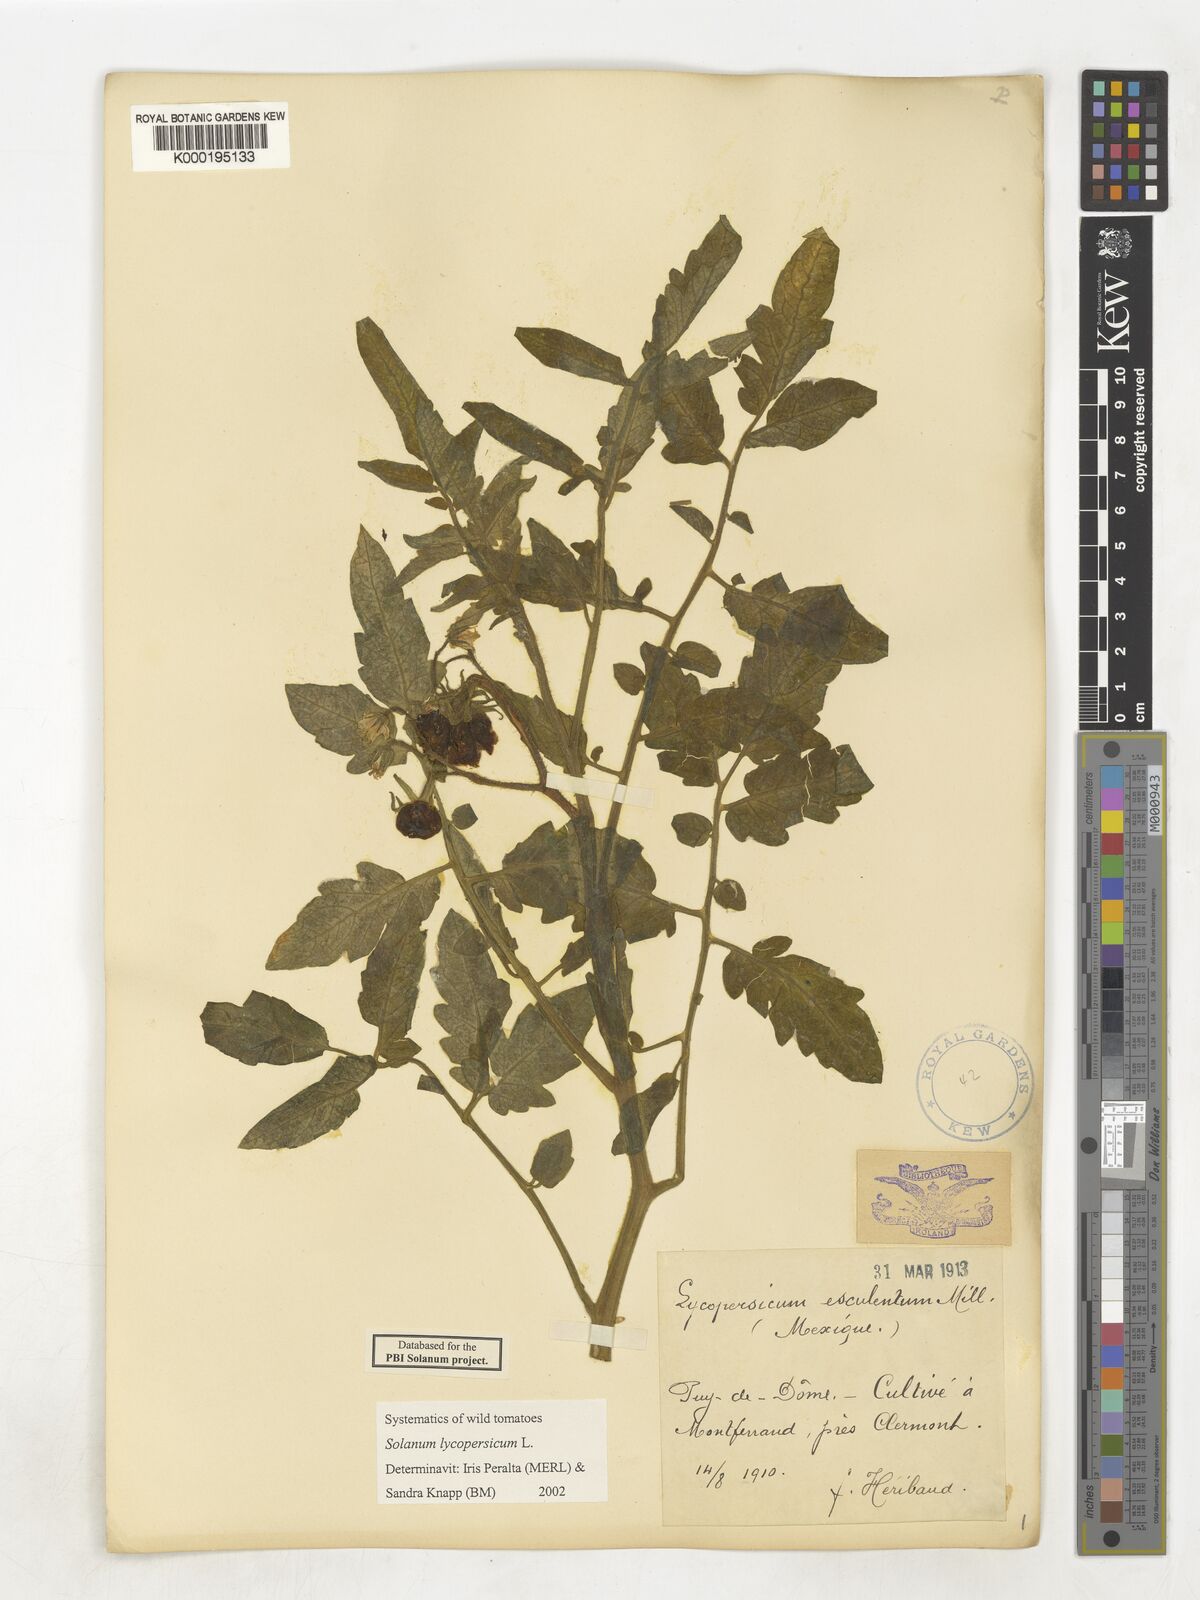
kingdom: Plantae
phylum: Tracheophyta
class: Magnoliopsida
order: Solanales
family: Solanaceae
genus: Solanum
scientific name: Solanum lycopersicum
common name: Garden tomato
